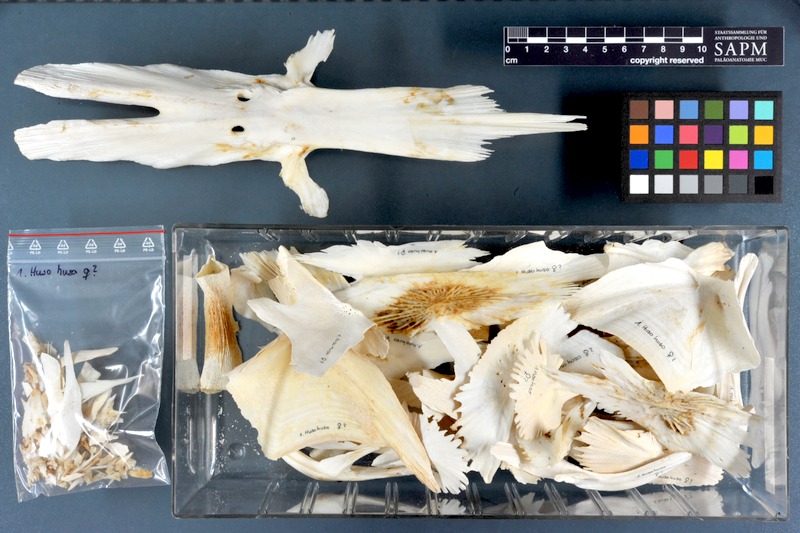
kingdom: Animalia
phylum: Chordata
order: Acipenseriformes
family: Acipenseridae
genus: Huso
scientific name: Huso huso
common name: Beluga
